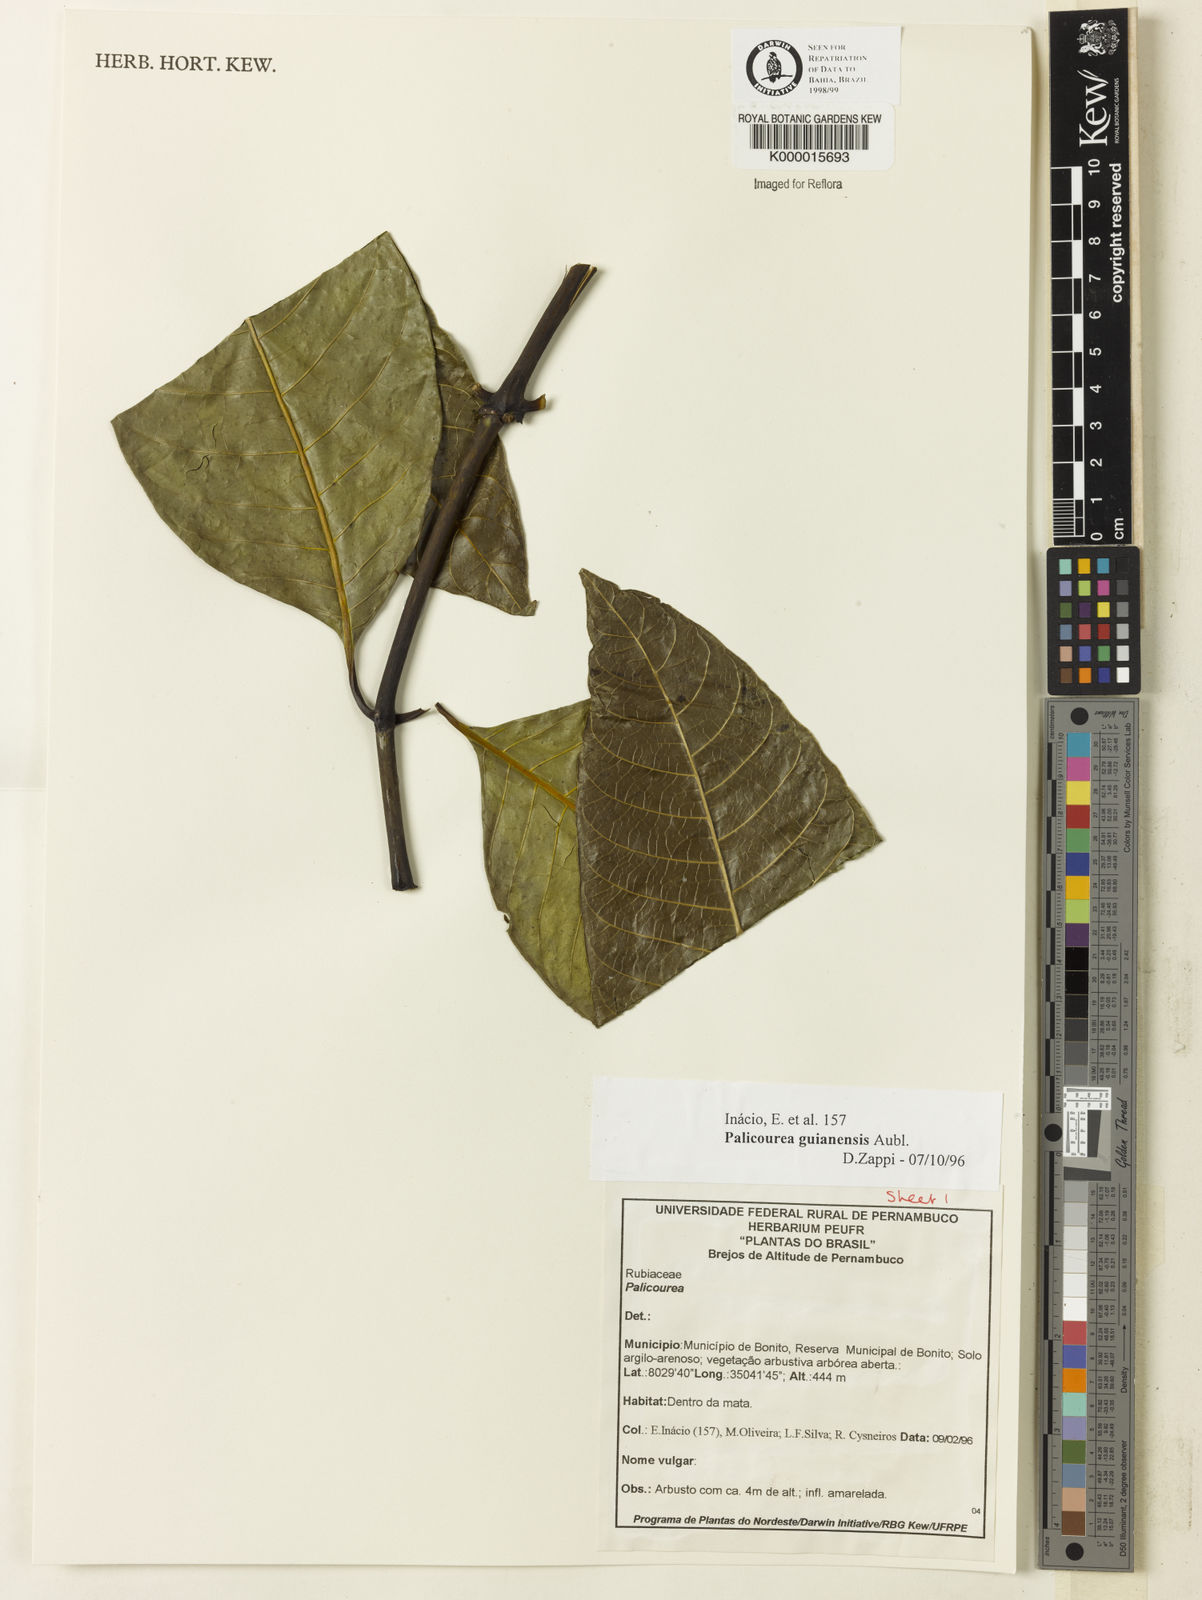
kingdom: Plantae
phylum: Tracheophyta
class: Magnoliopsida
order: Gentianales
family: Rubiaceae
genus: Palicourea
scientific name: Palicourea guianensis
